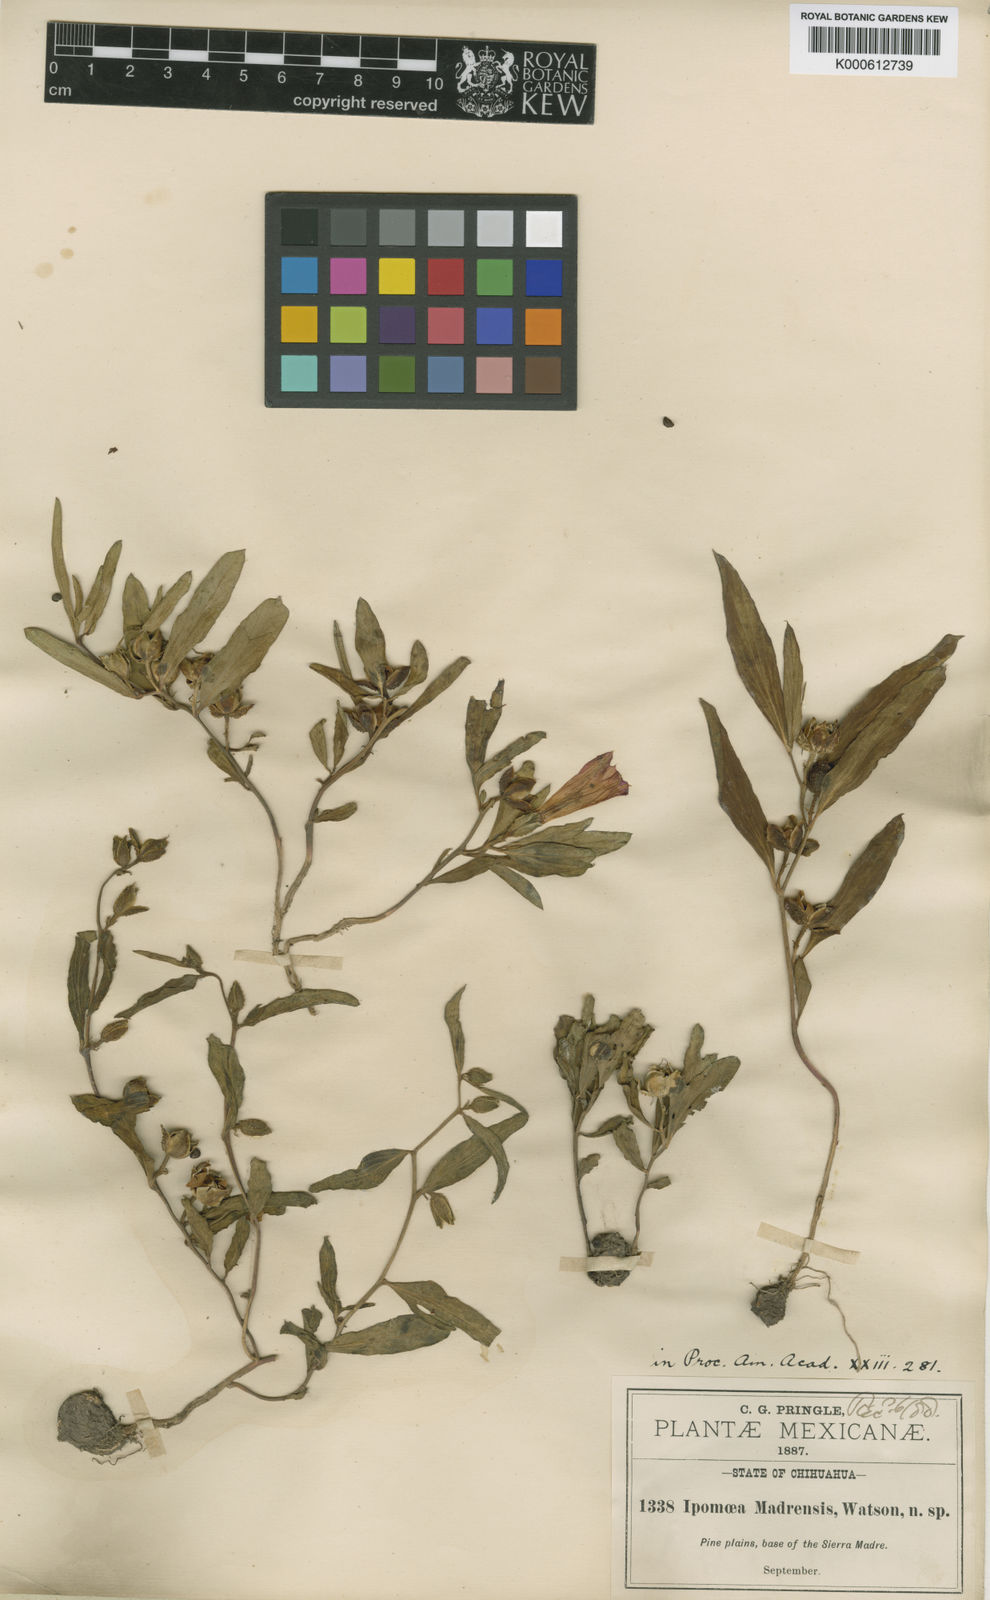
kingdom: Plantae
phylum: Tracheophyta
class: Magnoliopsida
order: Solanales
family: Convolvulaceae
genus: Ipomoea
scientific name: Ipomoea madrensis
